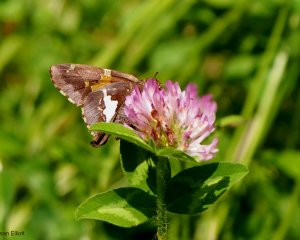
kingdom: Animalia
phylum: Arthropoda
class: Insecta
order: Lepidoptera
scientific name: Lepidoptera
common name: Butterflies
